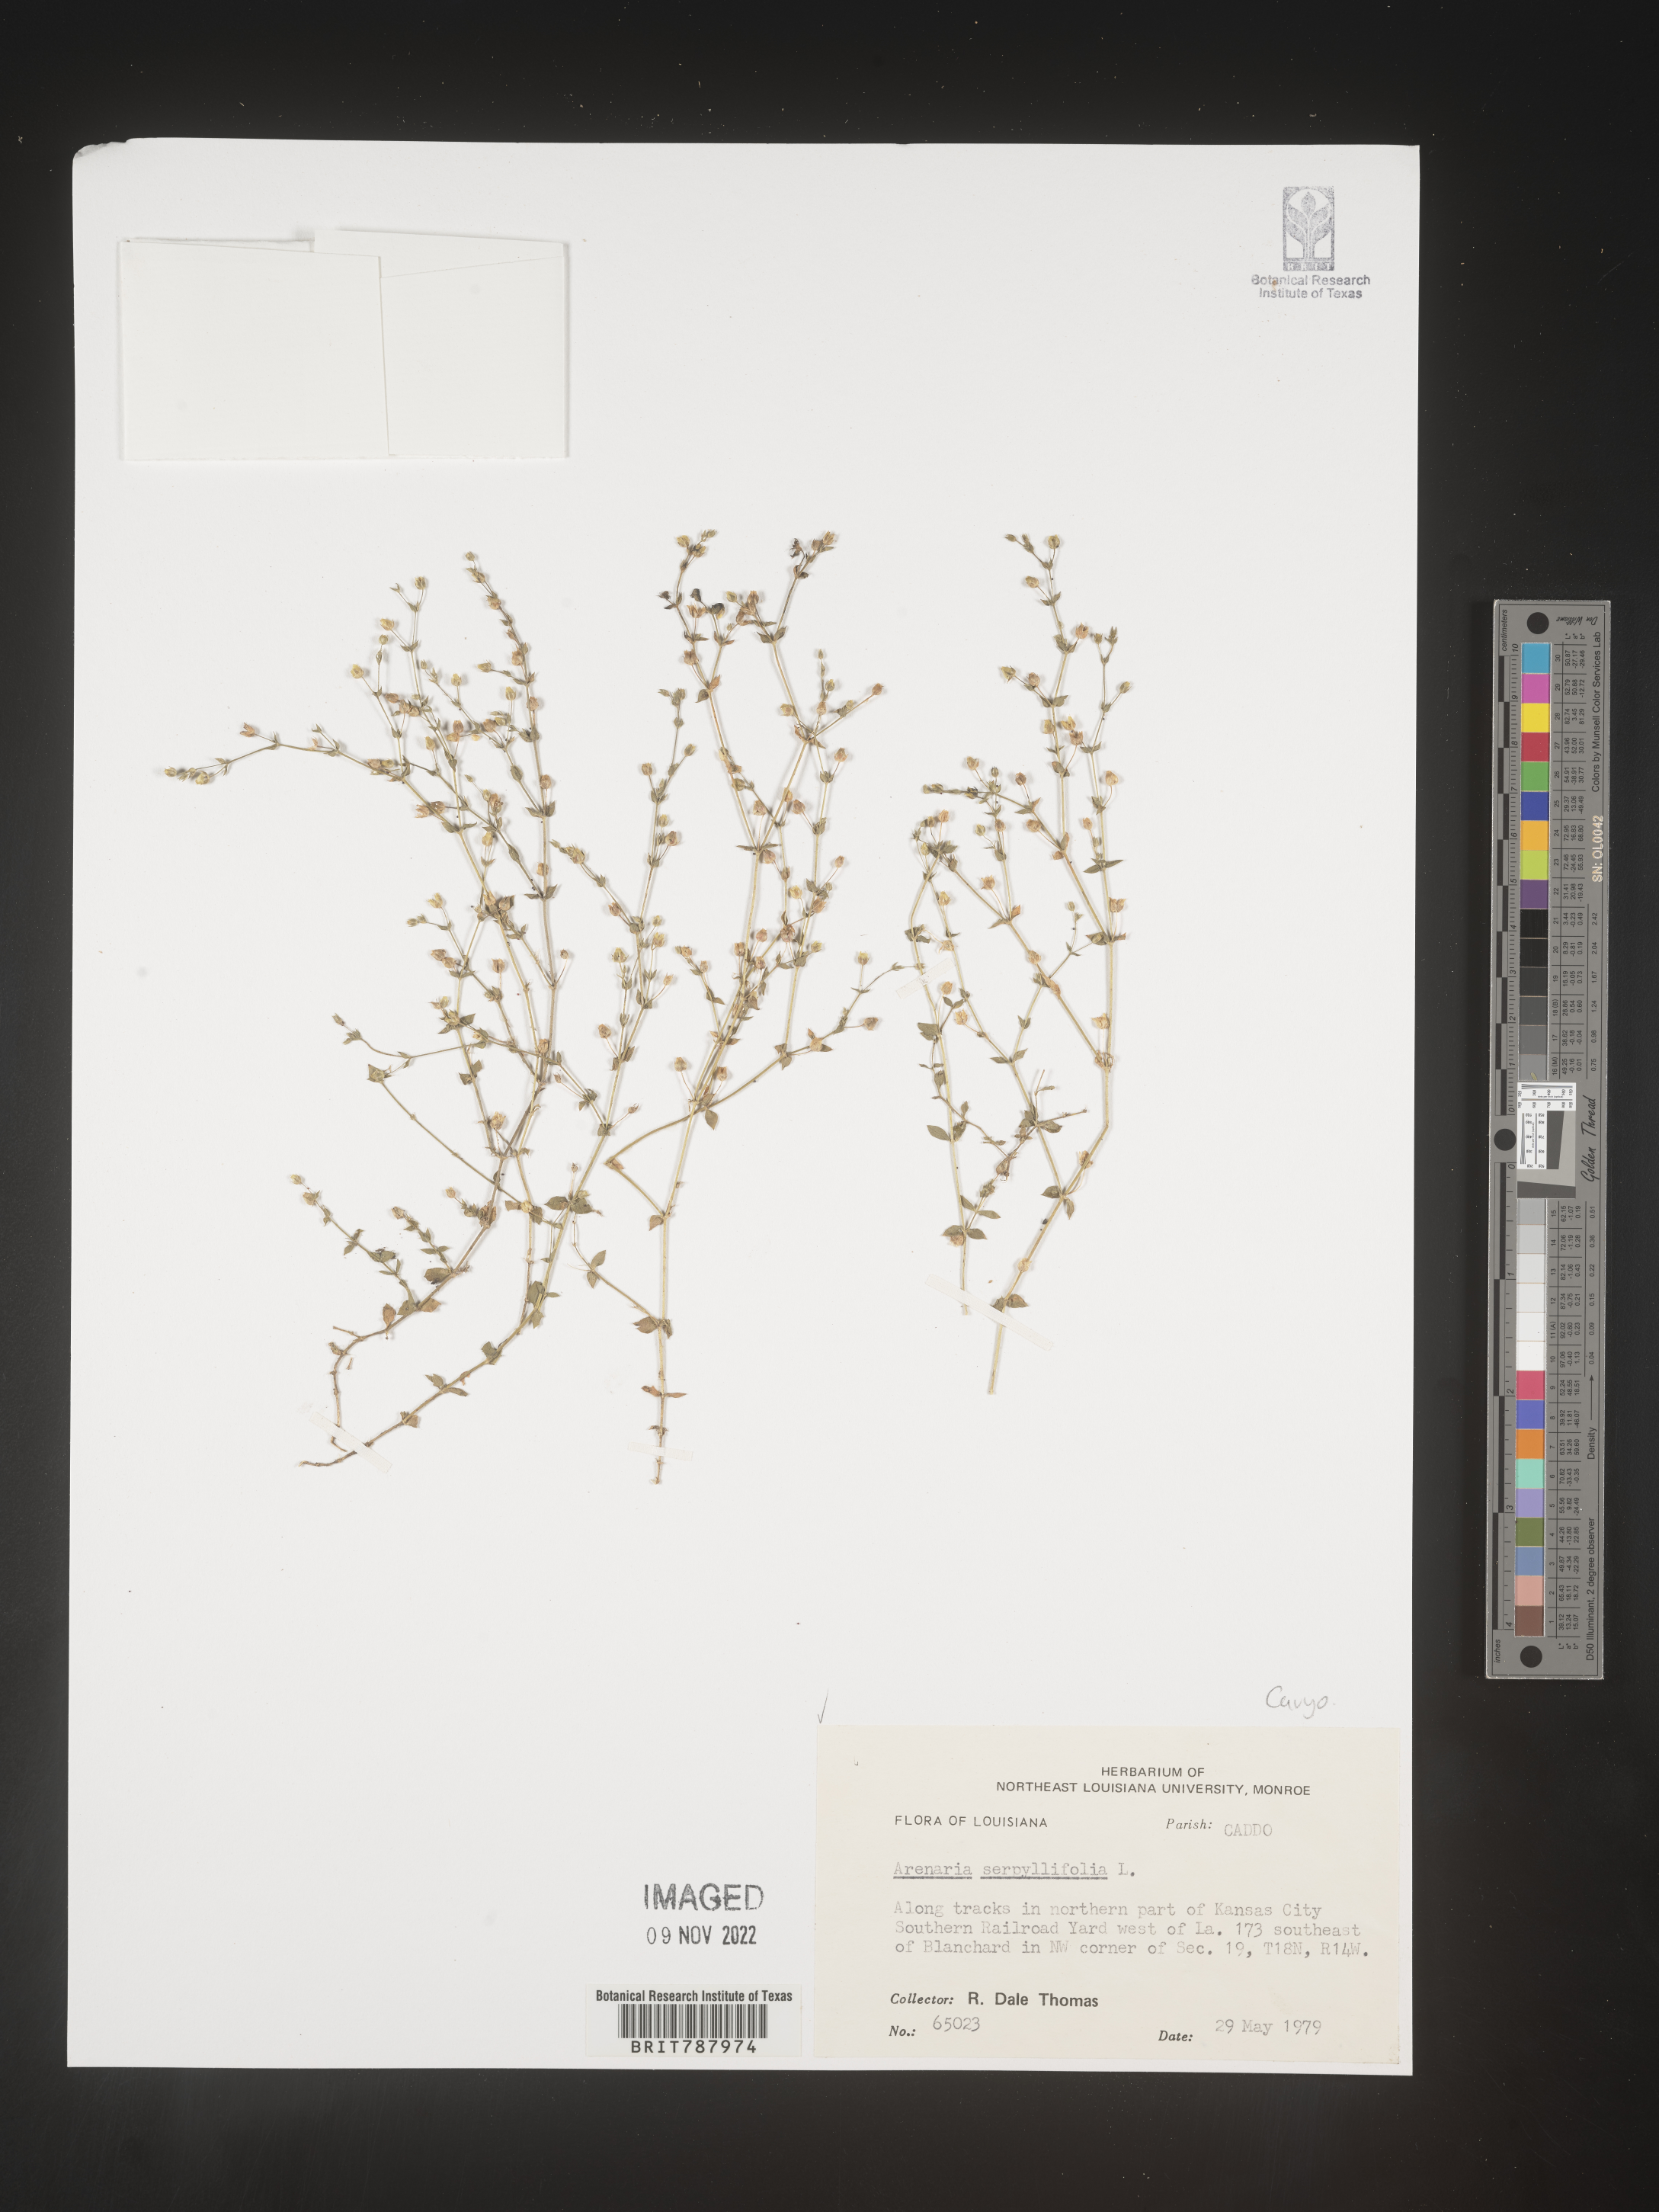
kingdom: Plantae
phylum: Tracheophyta
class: Magnoliopsida
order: Caryophyllales
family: Caryophyllaceae
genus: Arenaria
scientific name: Arenaria serpyllifolia
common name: Thyme-leaved sandwort
